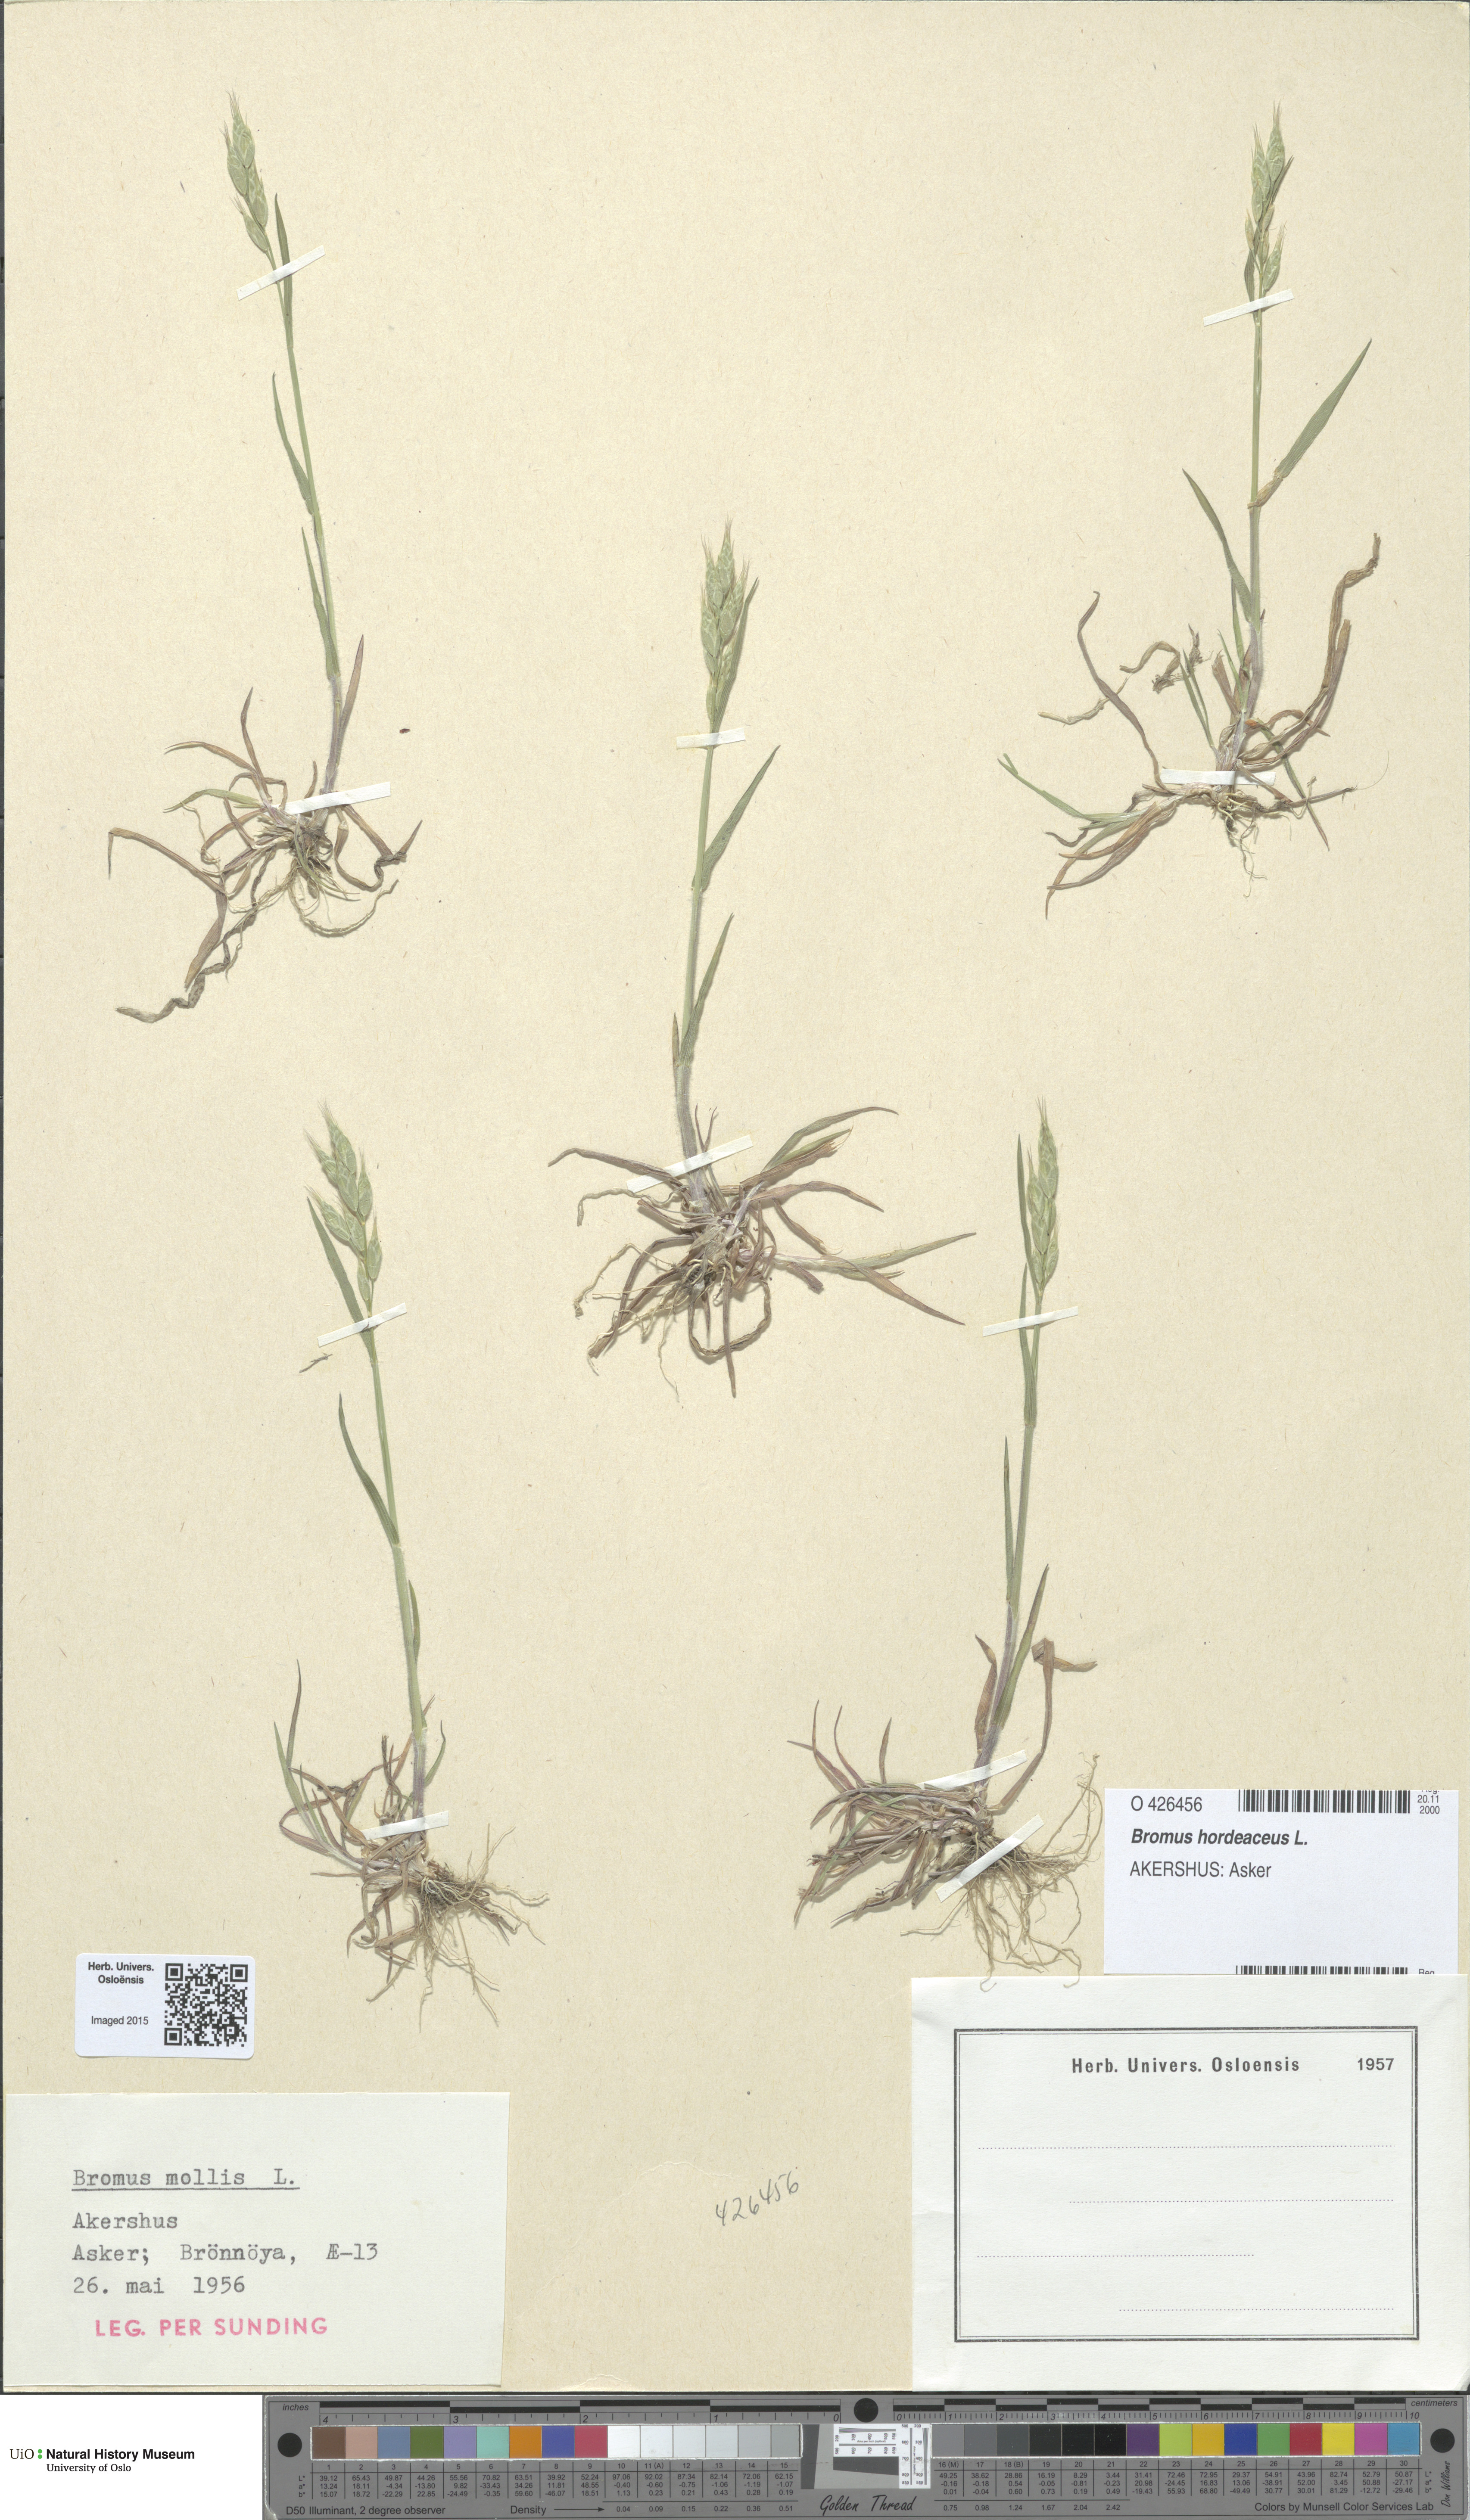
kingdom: Plantae
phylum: Tracheophyta
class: Liliopsida
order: Poales
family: Poaceae
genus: Bromus
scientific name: Bromus hordeaceus
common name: Soft brome
